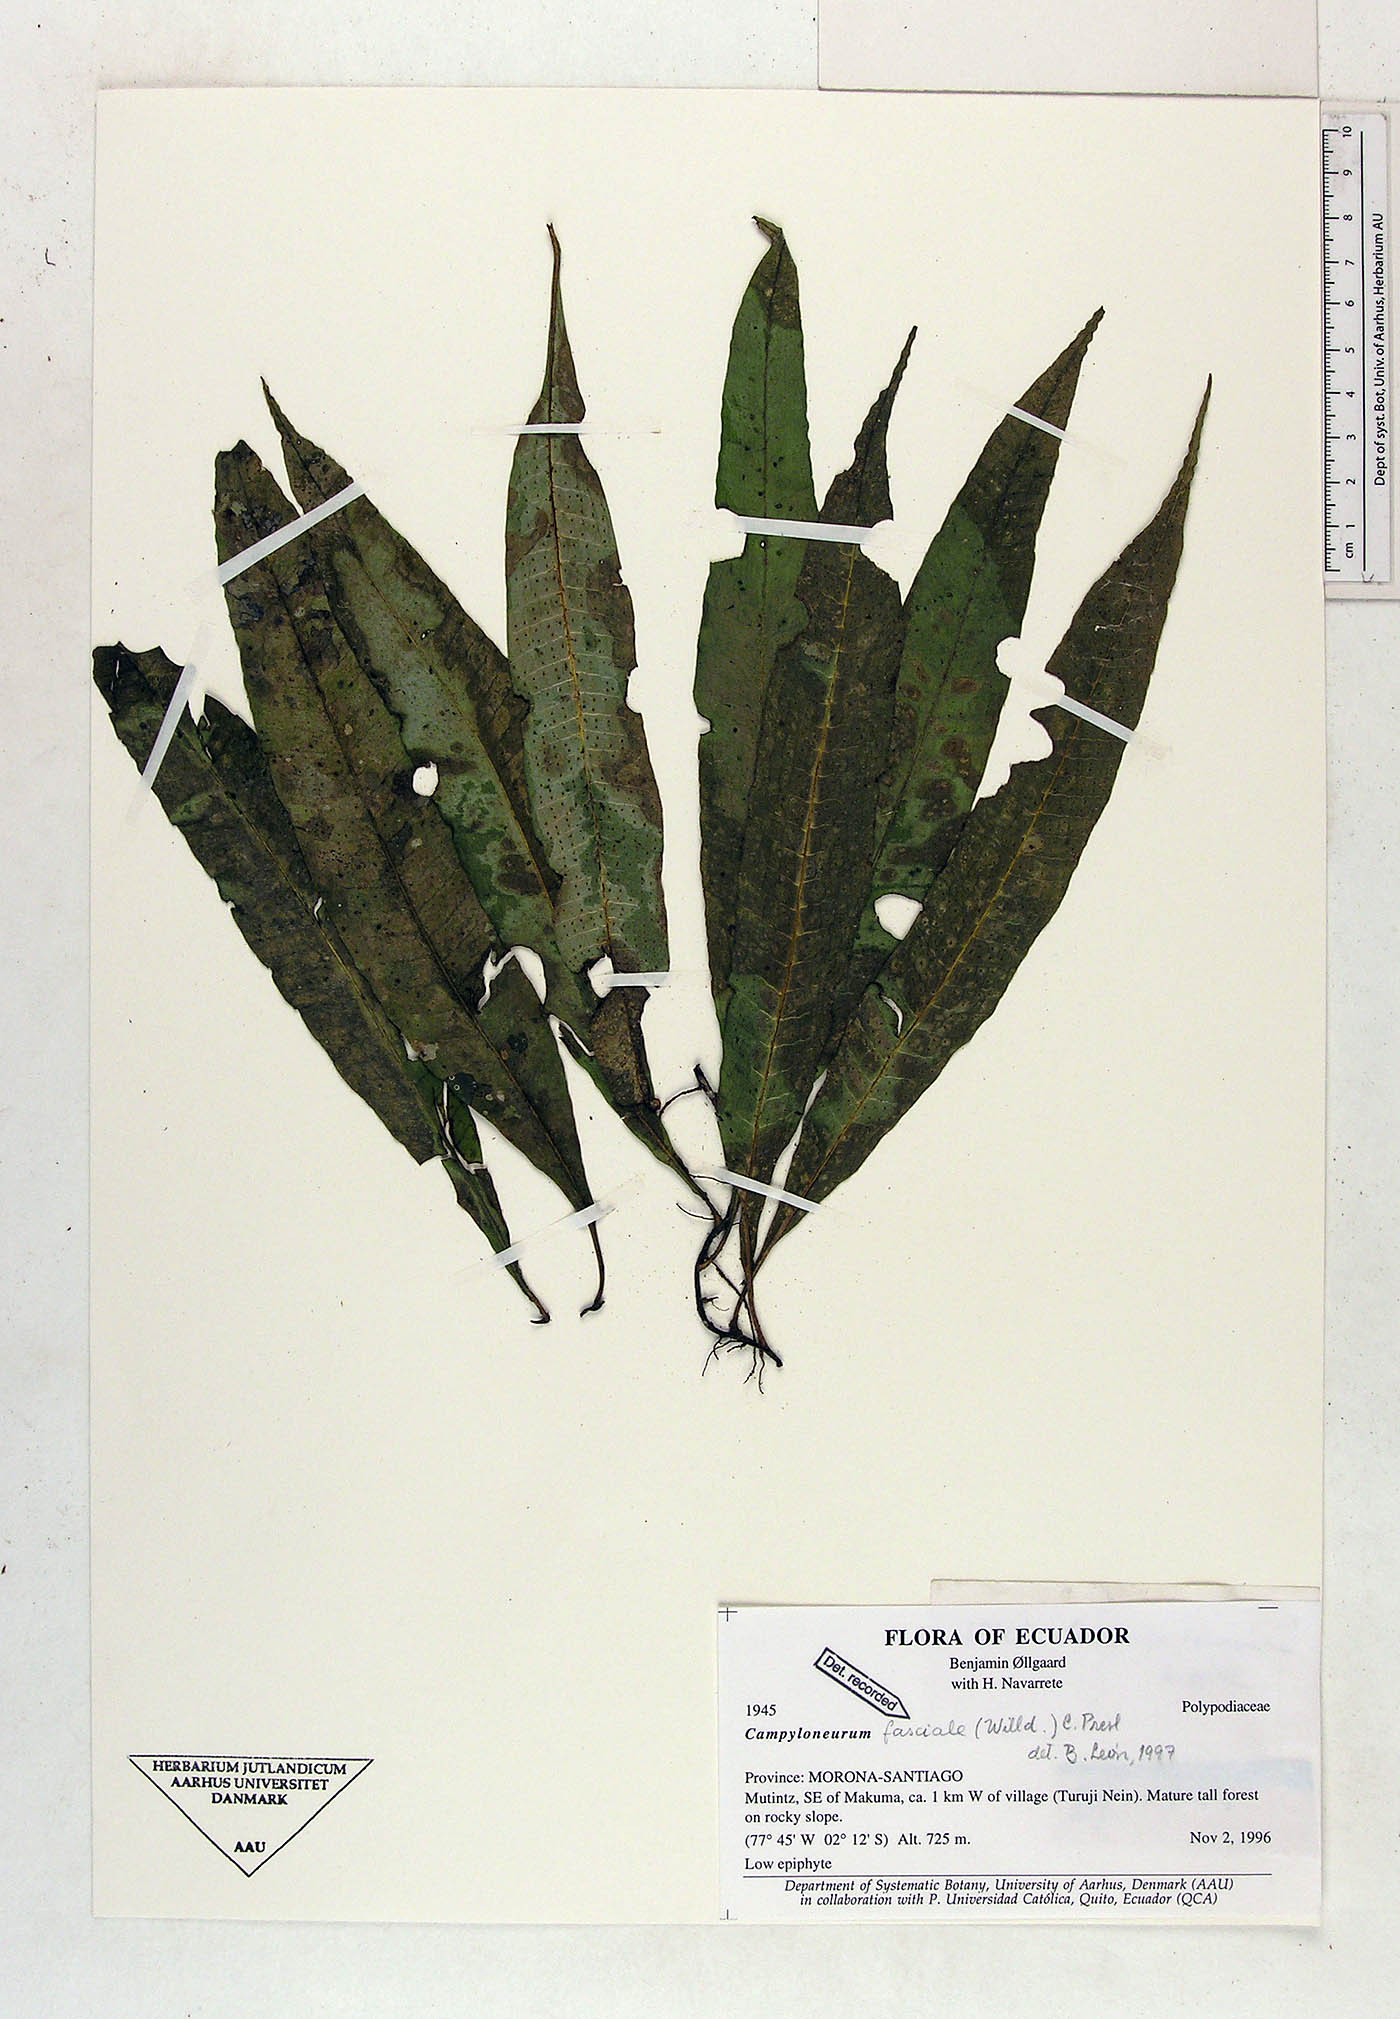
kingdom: Plantae
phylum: Tracheophyta
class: Polypodiopsida
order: Polypodiales
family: Polypodiaceae
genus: Campyloneurum
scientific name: Campyloneurum repens
